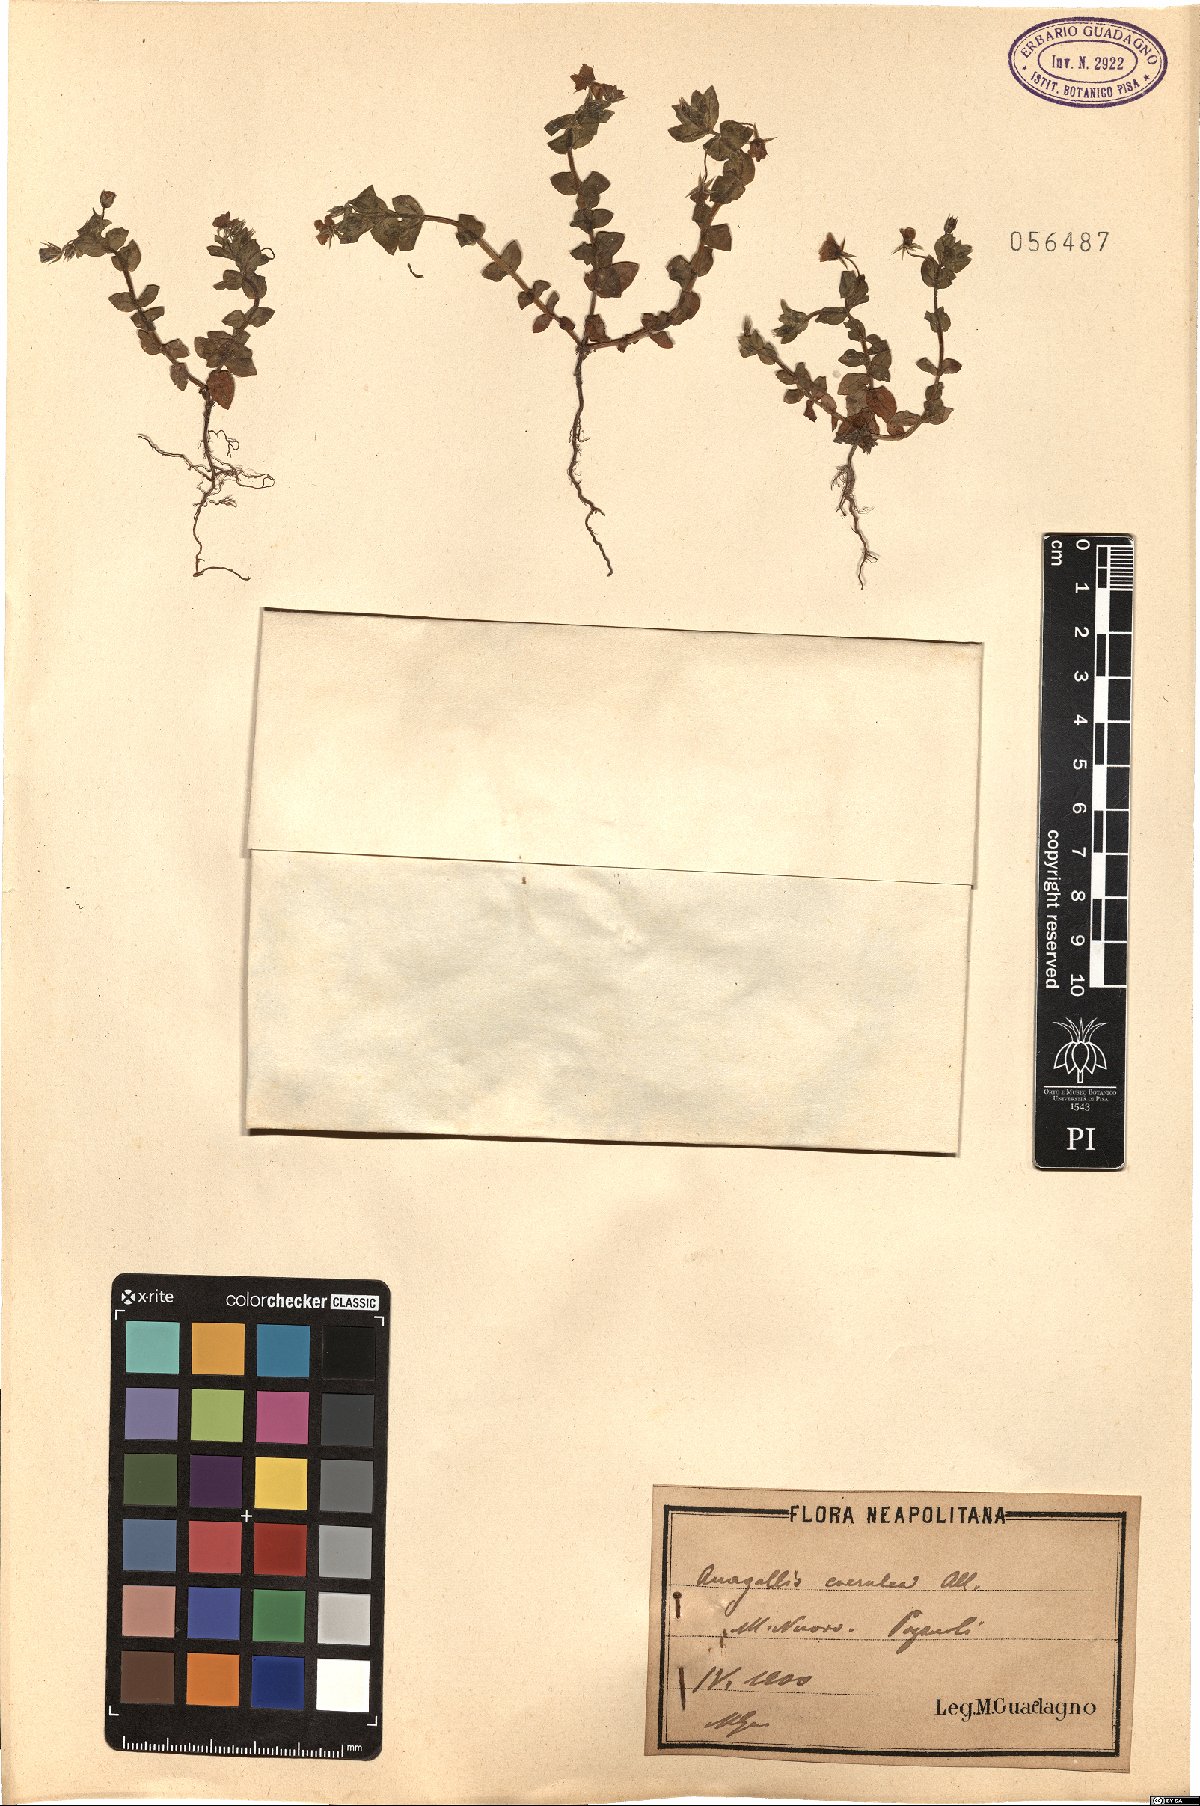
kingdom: Plantae
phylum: Tracheophyta
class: Magnoliopsida
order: Ericales
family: Primulaceae
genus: Lysimachia
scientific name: Lysimachia loeflingii
